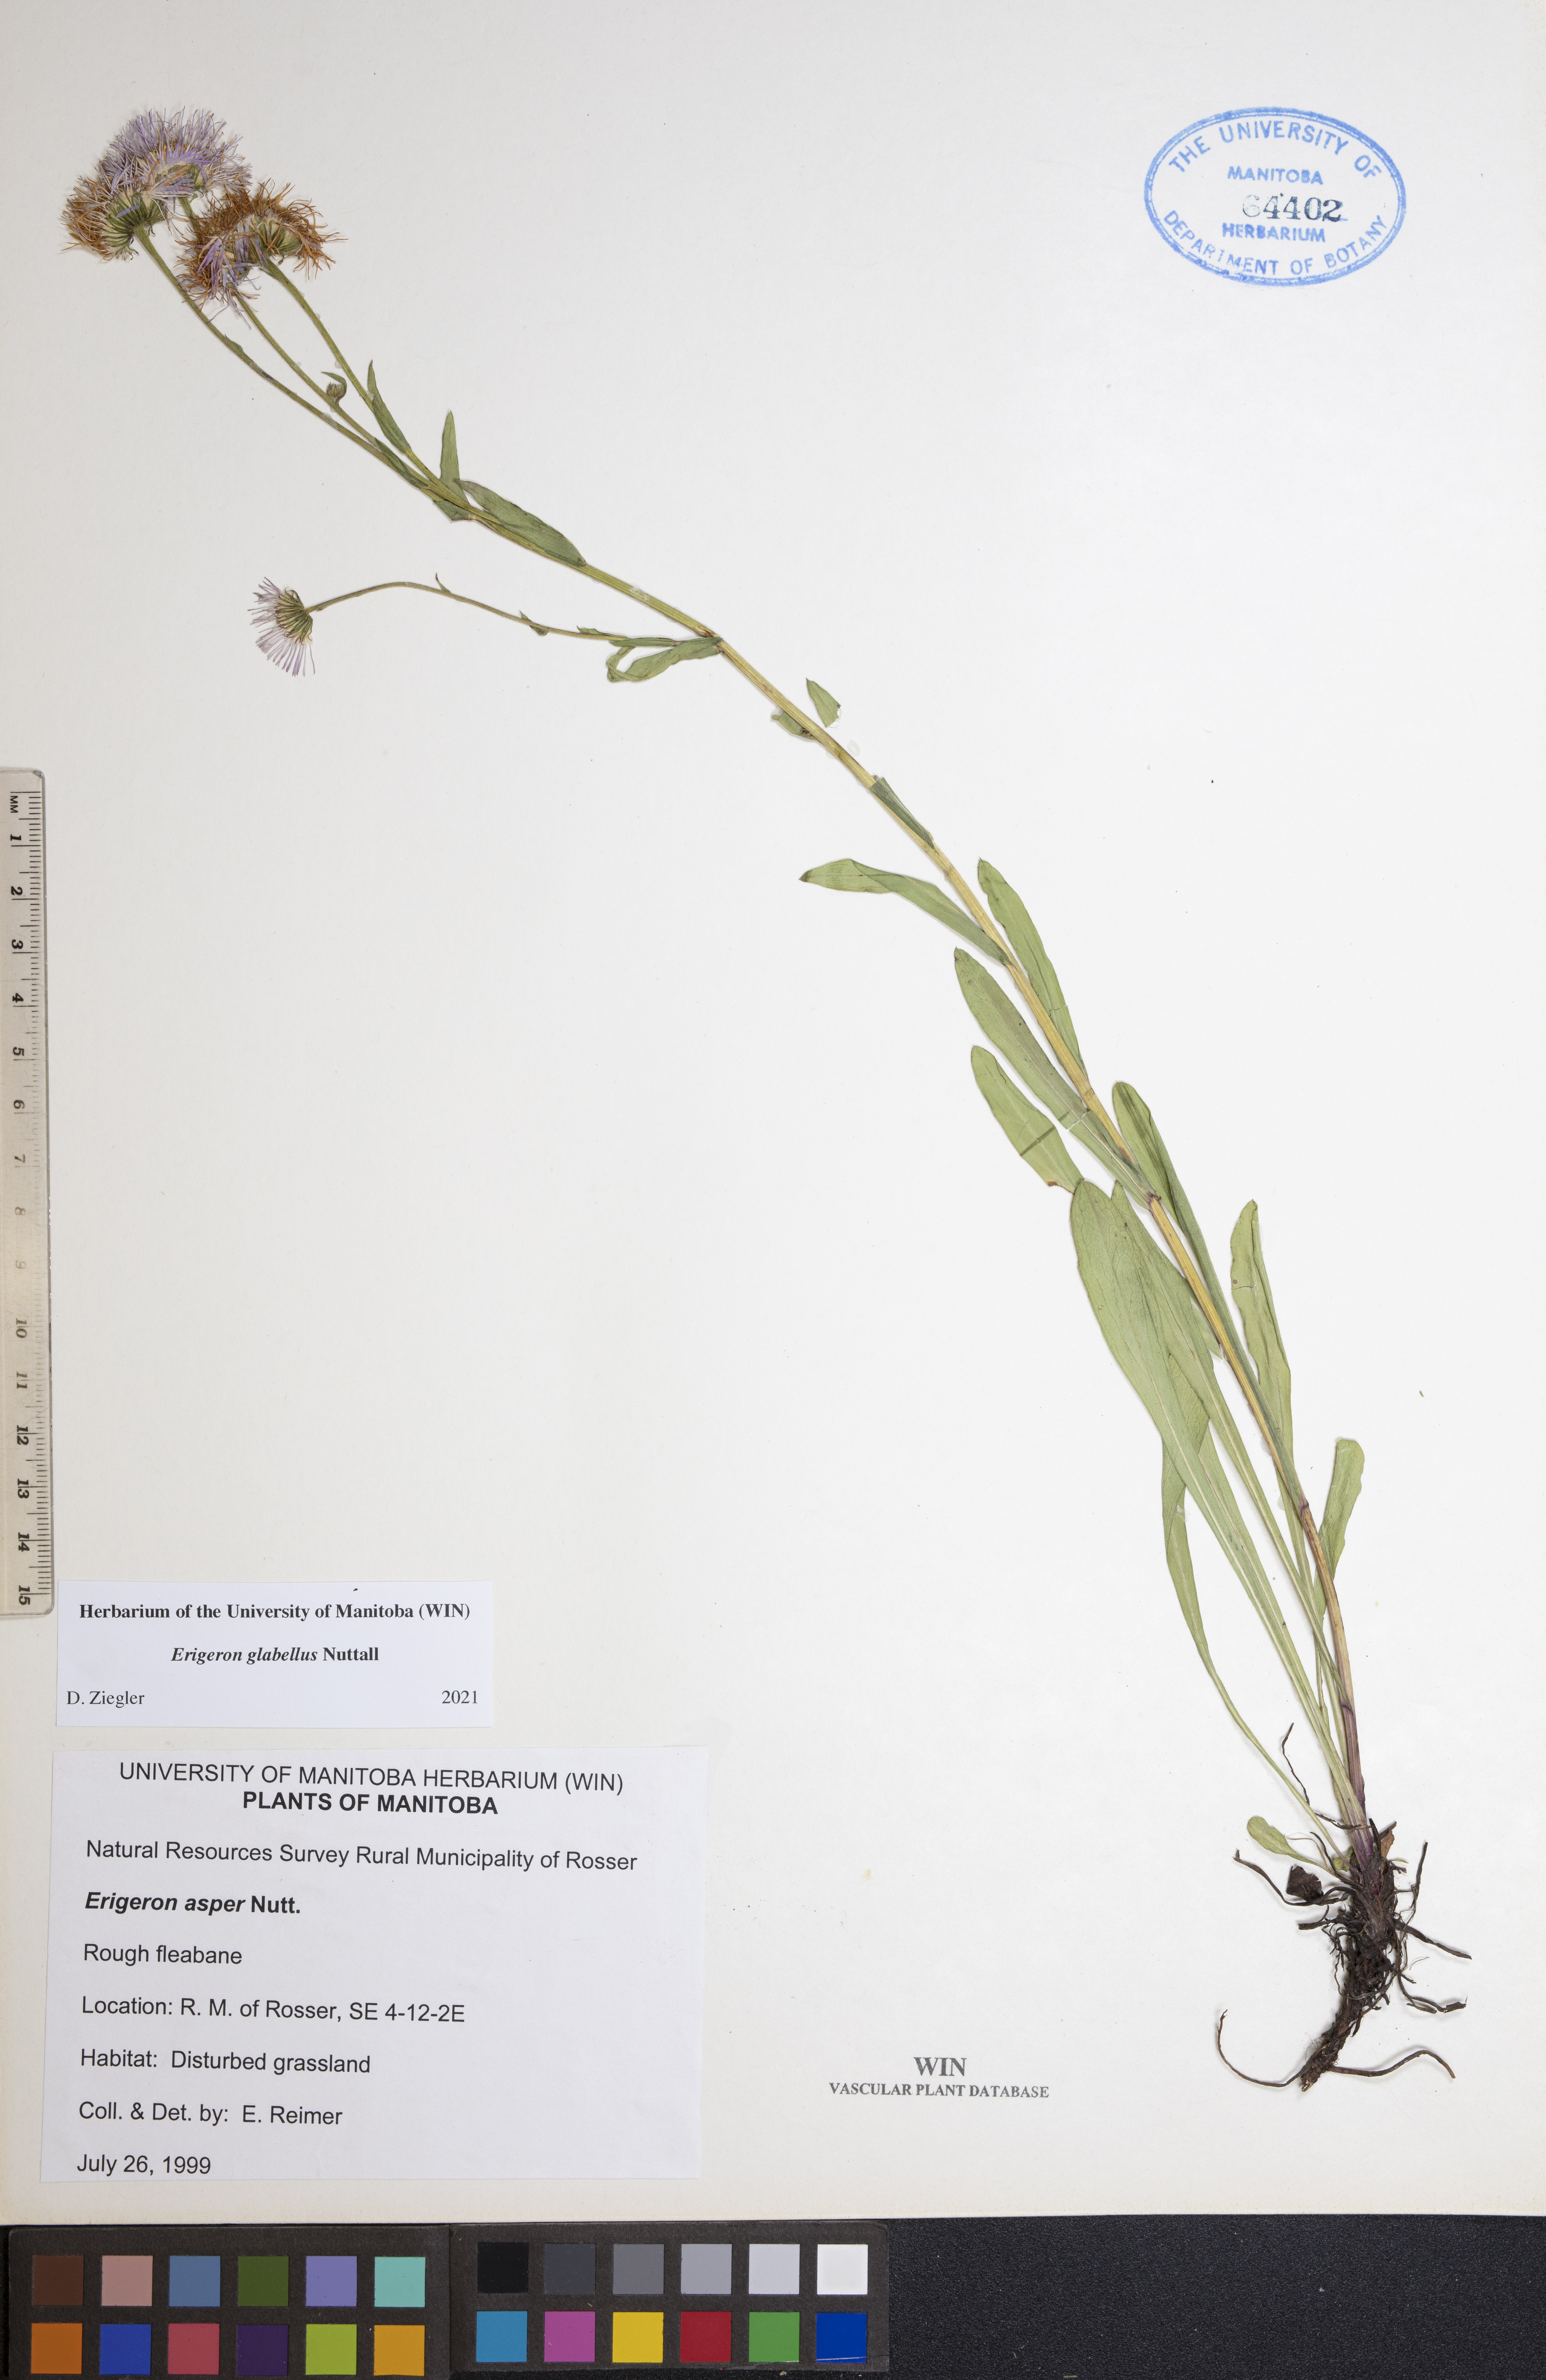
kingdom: Plantae
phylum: Tracheophyta
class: Magnoliopsida
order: Asterales
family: Asteraceae
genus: Erigeron
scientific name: Erigeron glabellus
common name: Smooth fleabane
